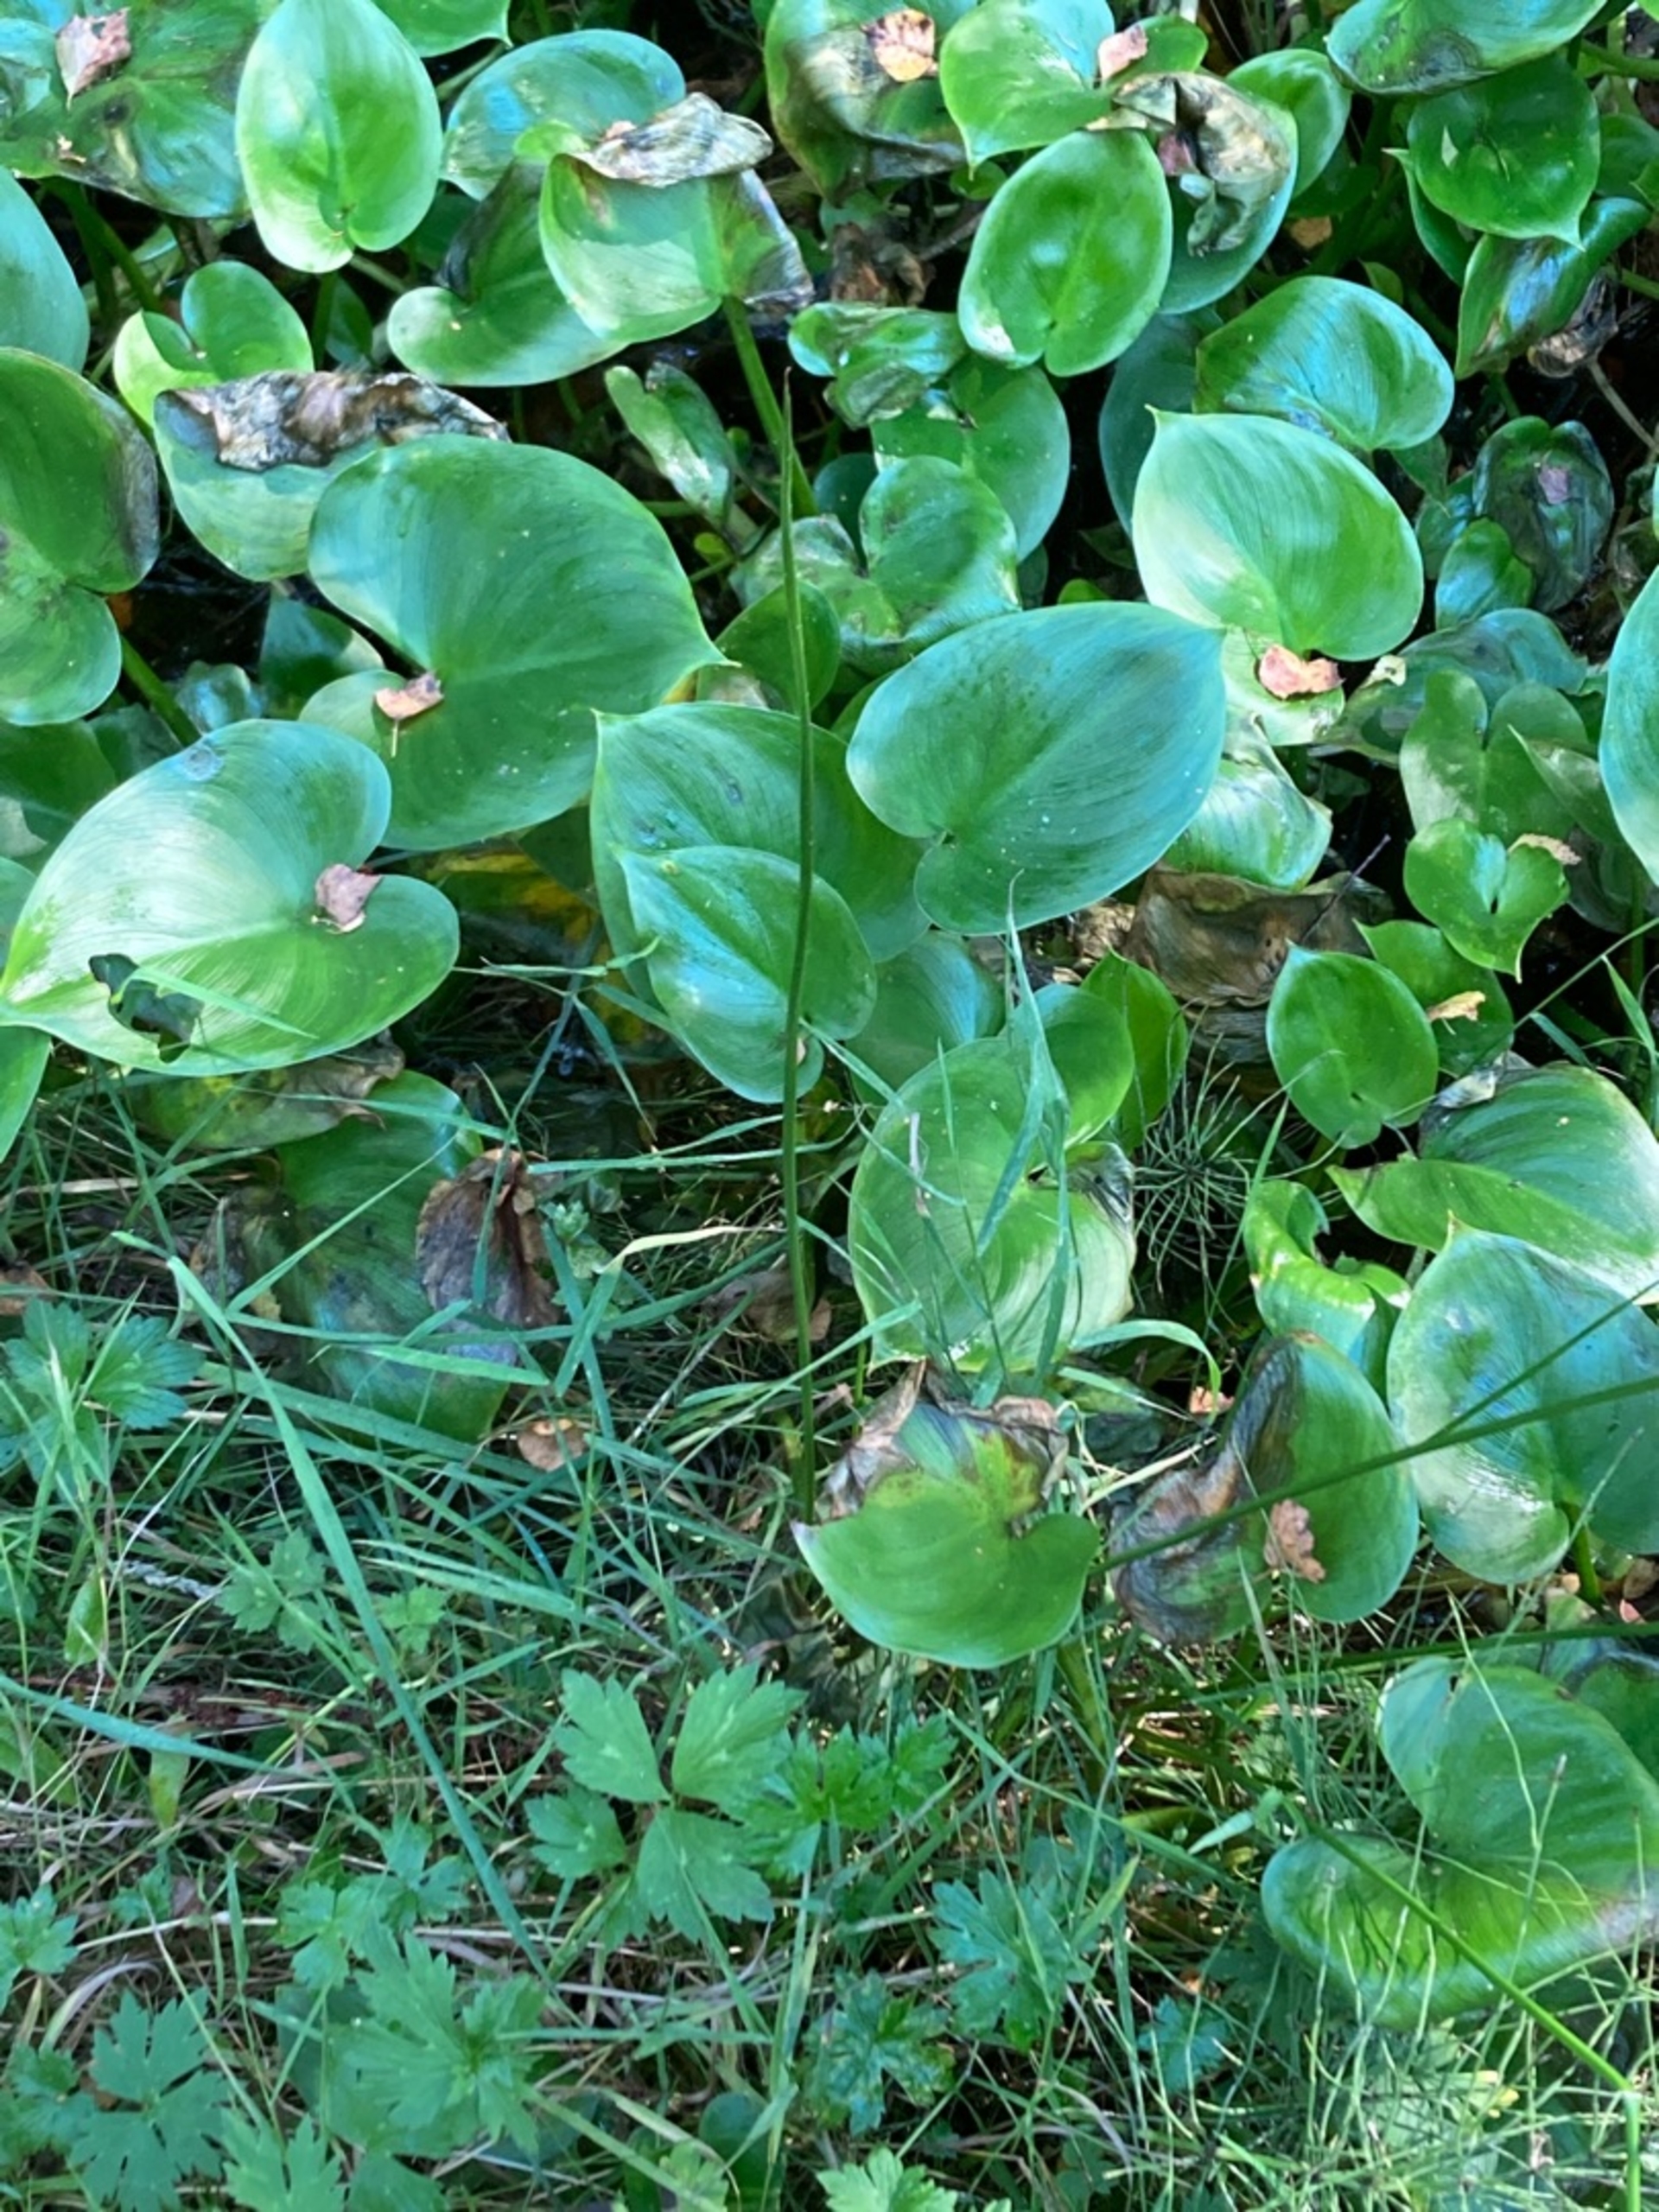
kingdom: Plantae
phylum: Tracheophyta
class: Liliopsida
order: Alismatales
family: Araceae
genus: Calla
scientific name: Calla palustris
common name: Kærmysse
